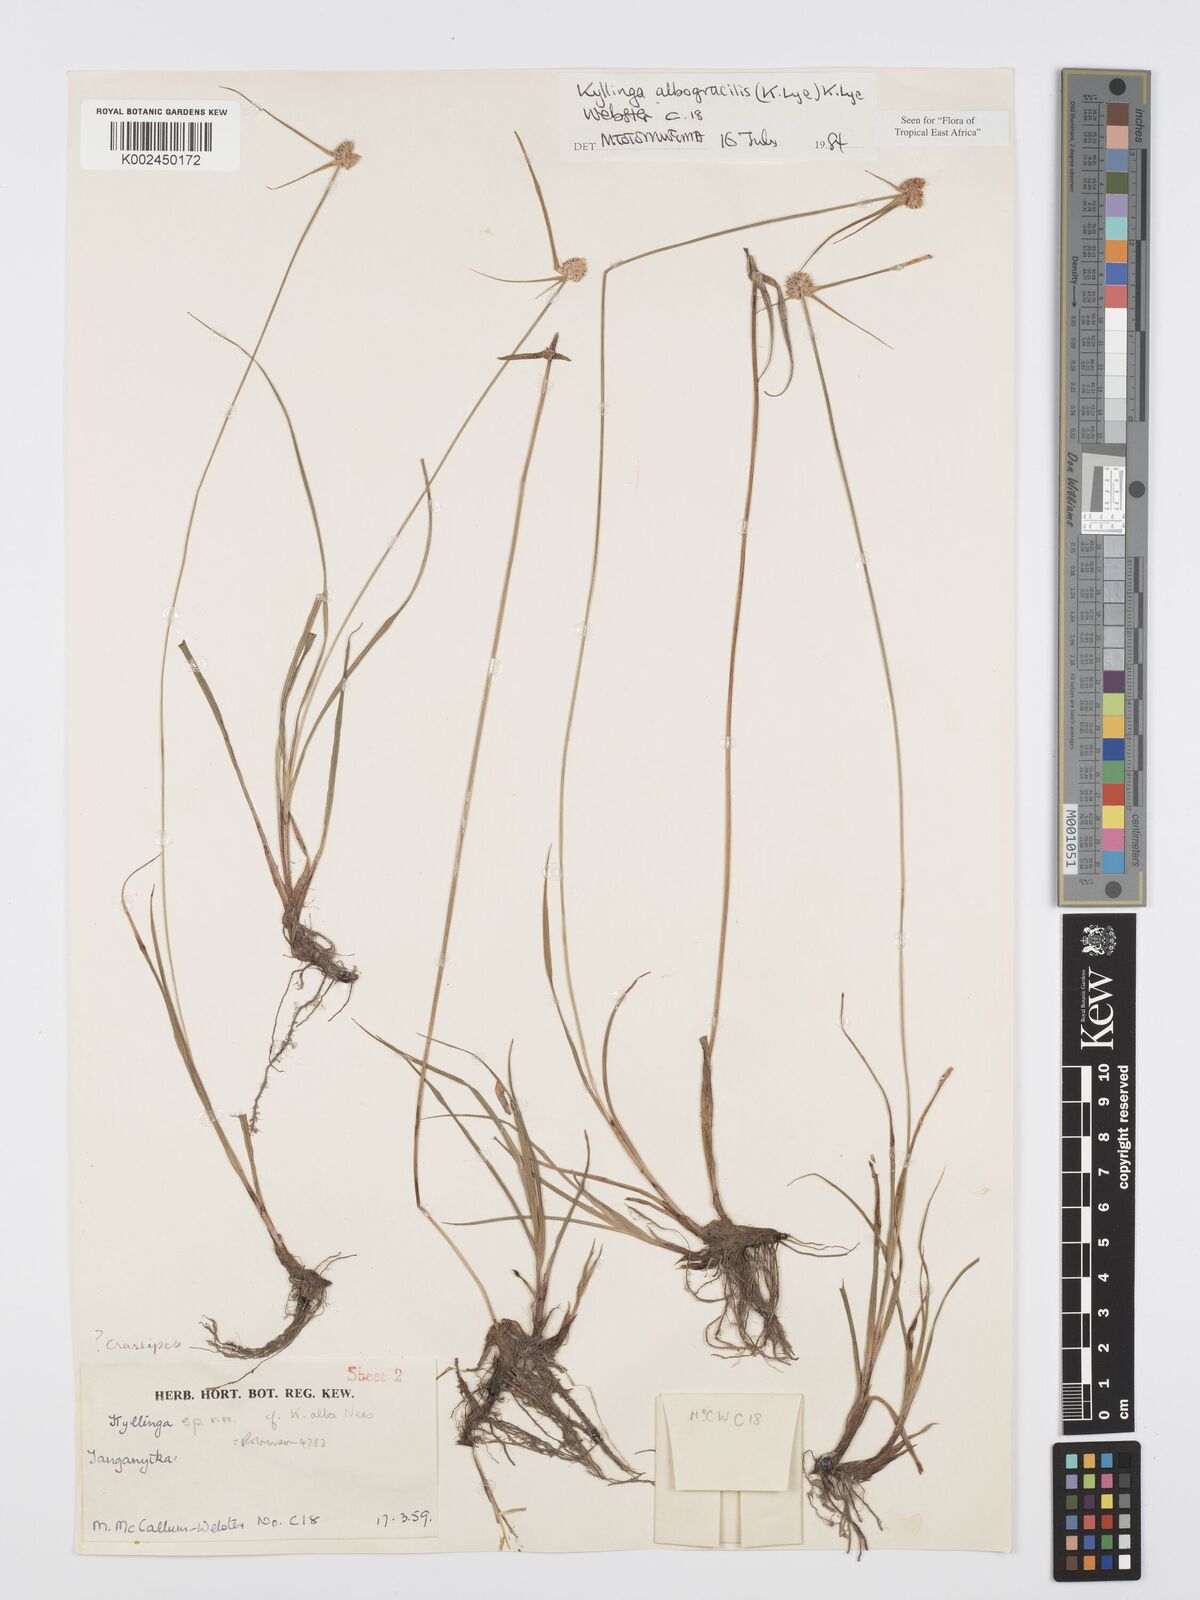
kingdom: Plantae
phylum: Tracheophyta
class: Liliopsida
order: Poales
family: Cyperaceae
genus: Cyperus
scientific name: Cyperus albogracilis
